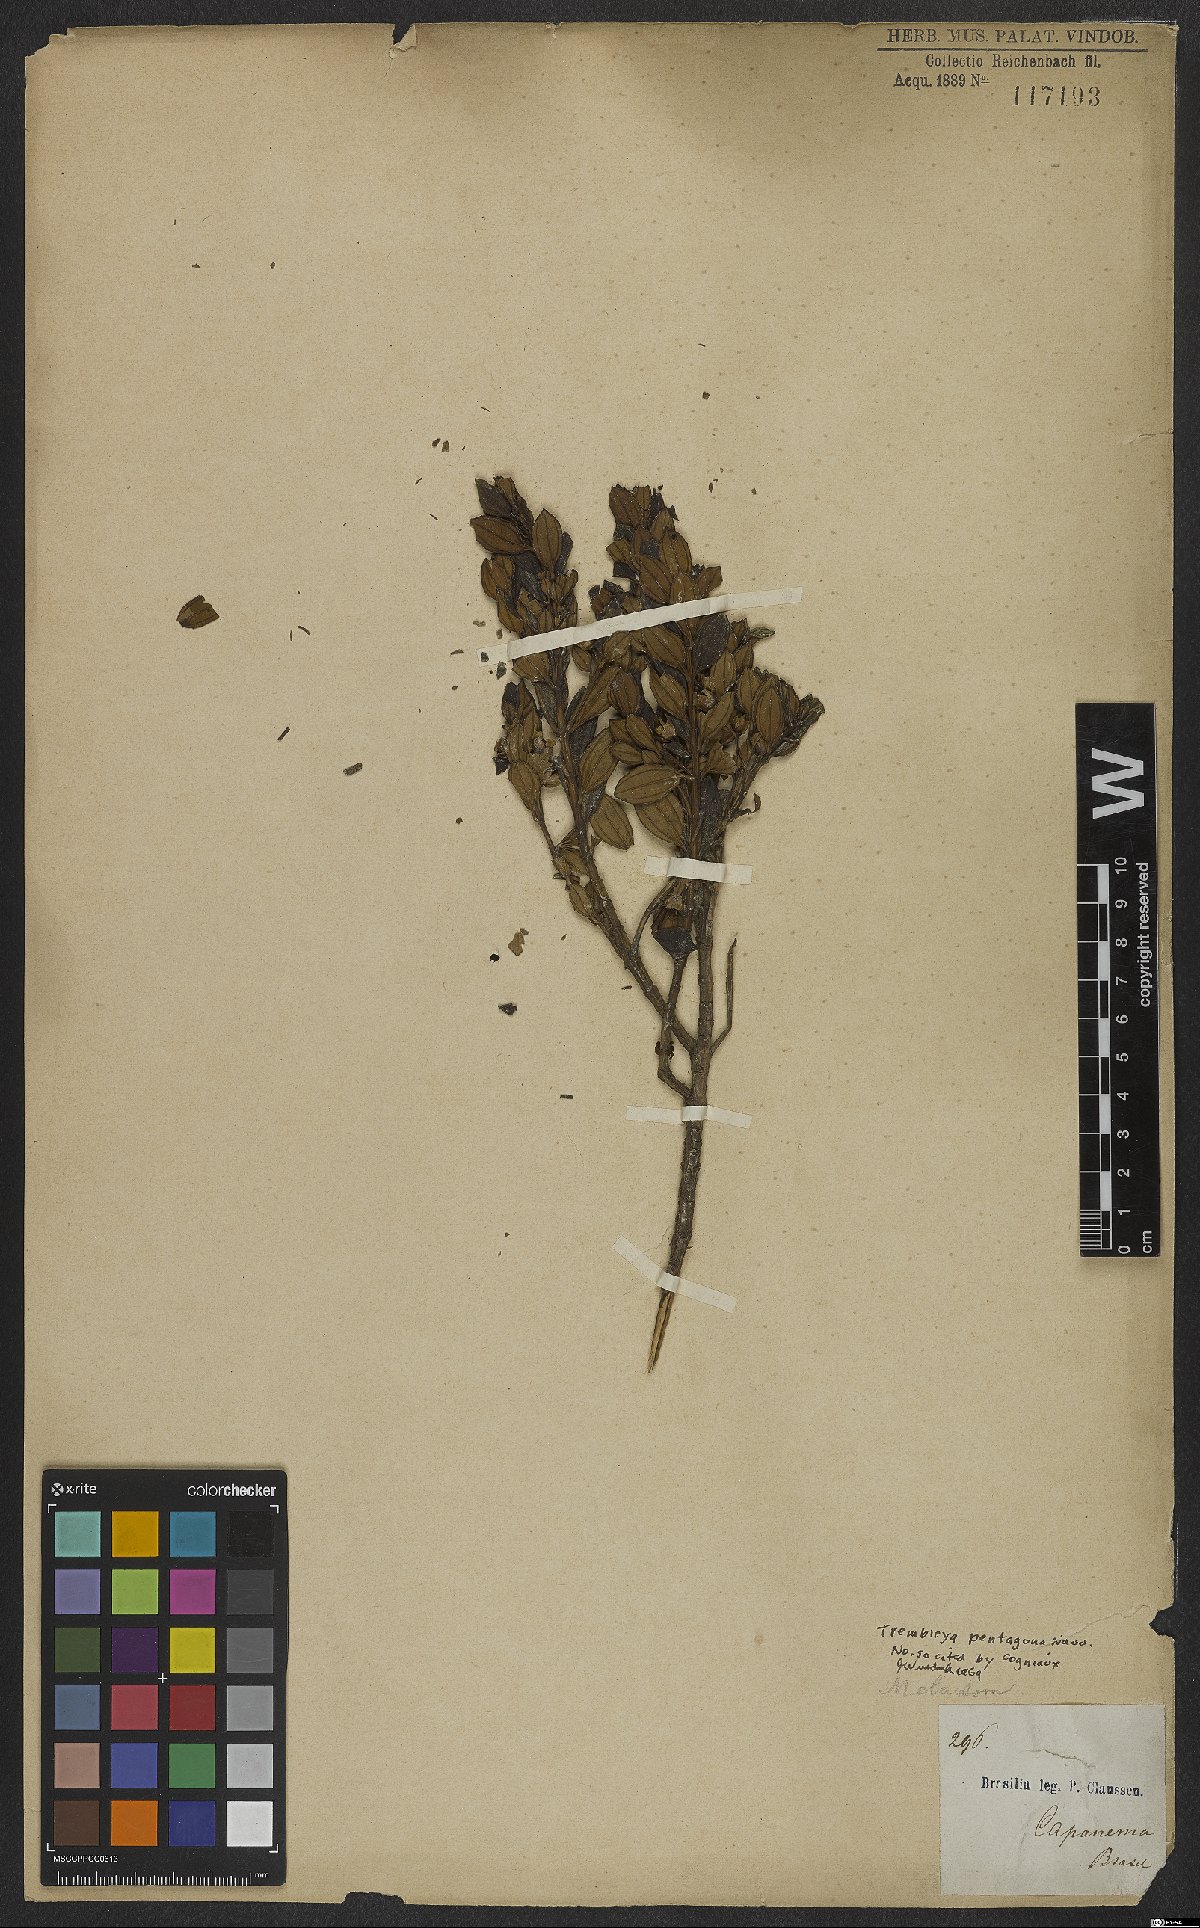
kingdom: Plantae
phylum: Tracheophyta
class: Magnoliopsida
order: Myrtales
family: Melastomataceae
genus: Microlicia
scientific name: Microlicia pentagona
